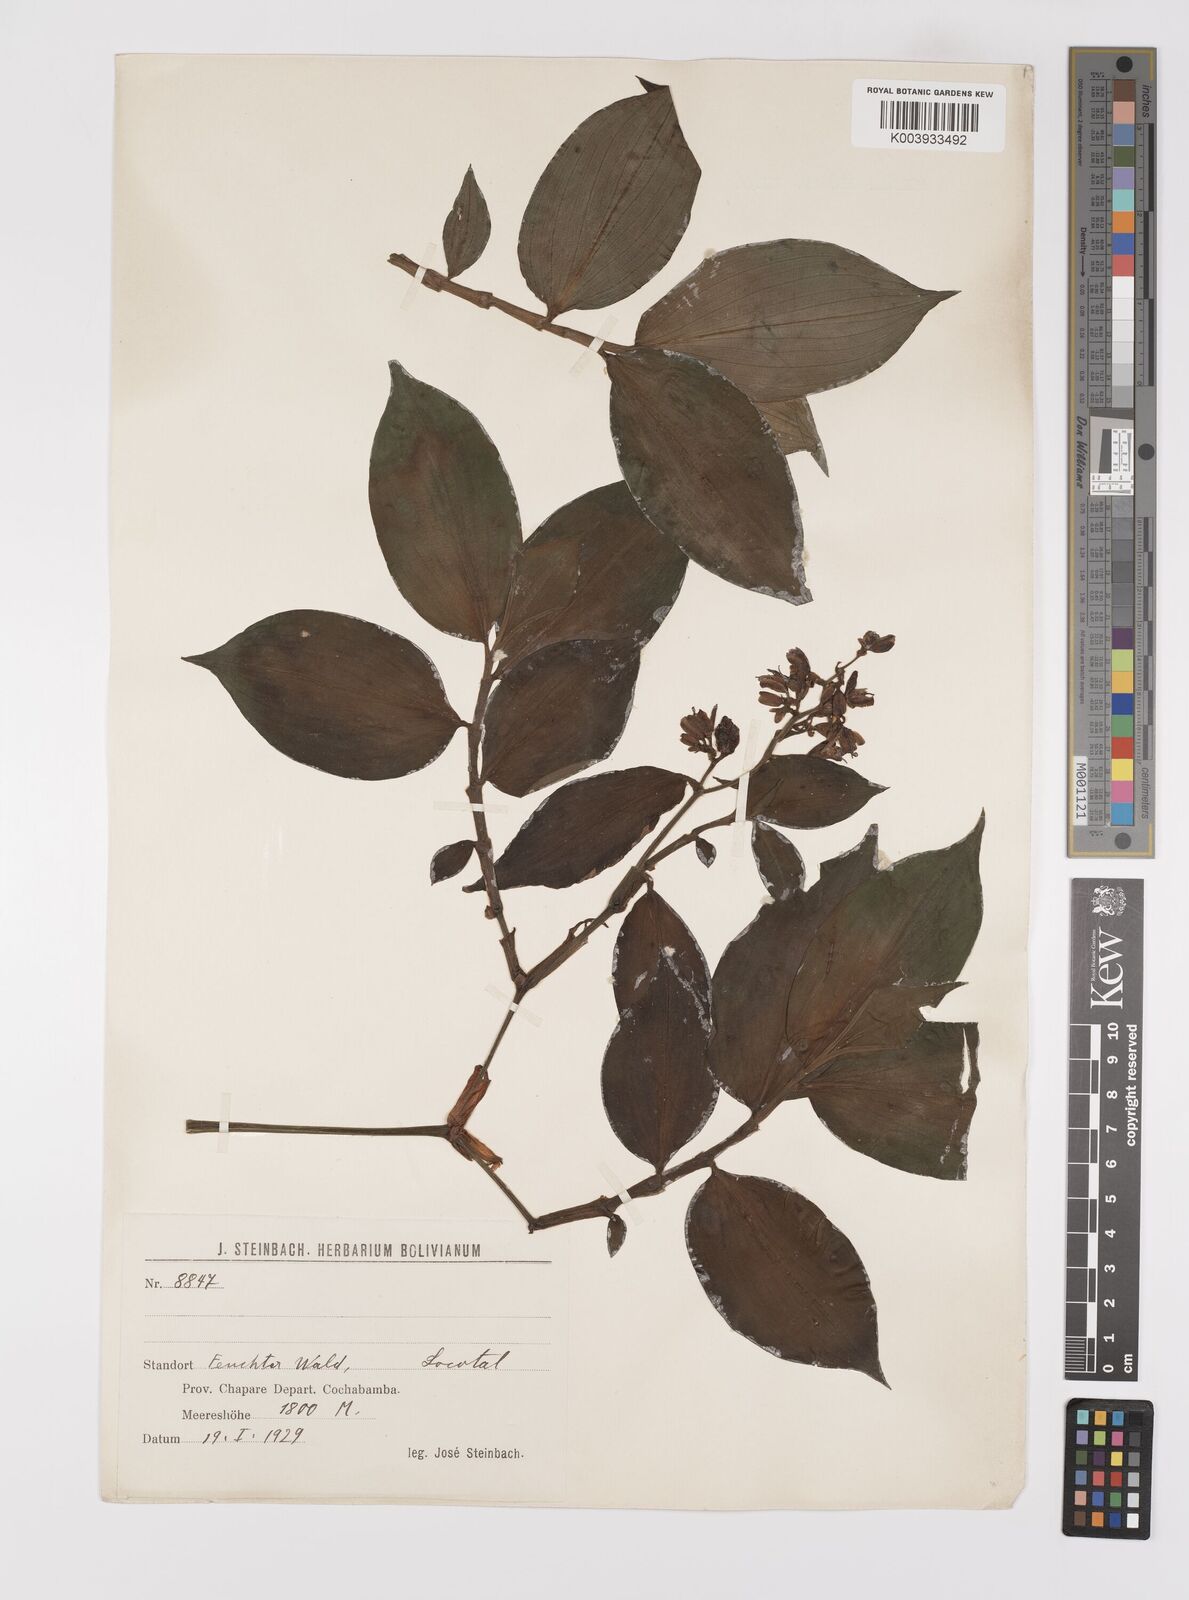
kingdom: Plantae
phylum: Tracheophyta
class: Liliopsida
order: Commelinales
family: Commelinaceae
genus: Dichorisandra
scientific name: Dichorisandra hexandra
